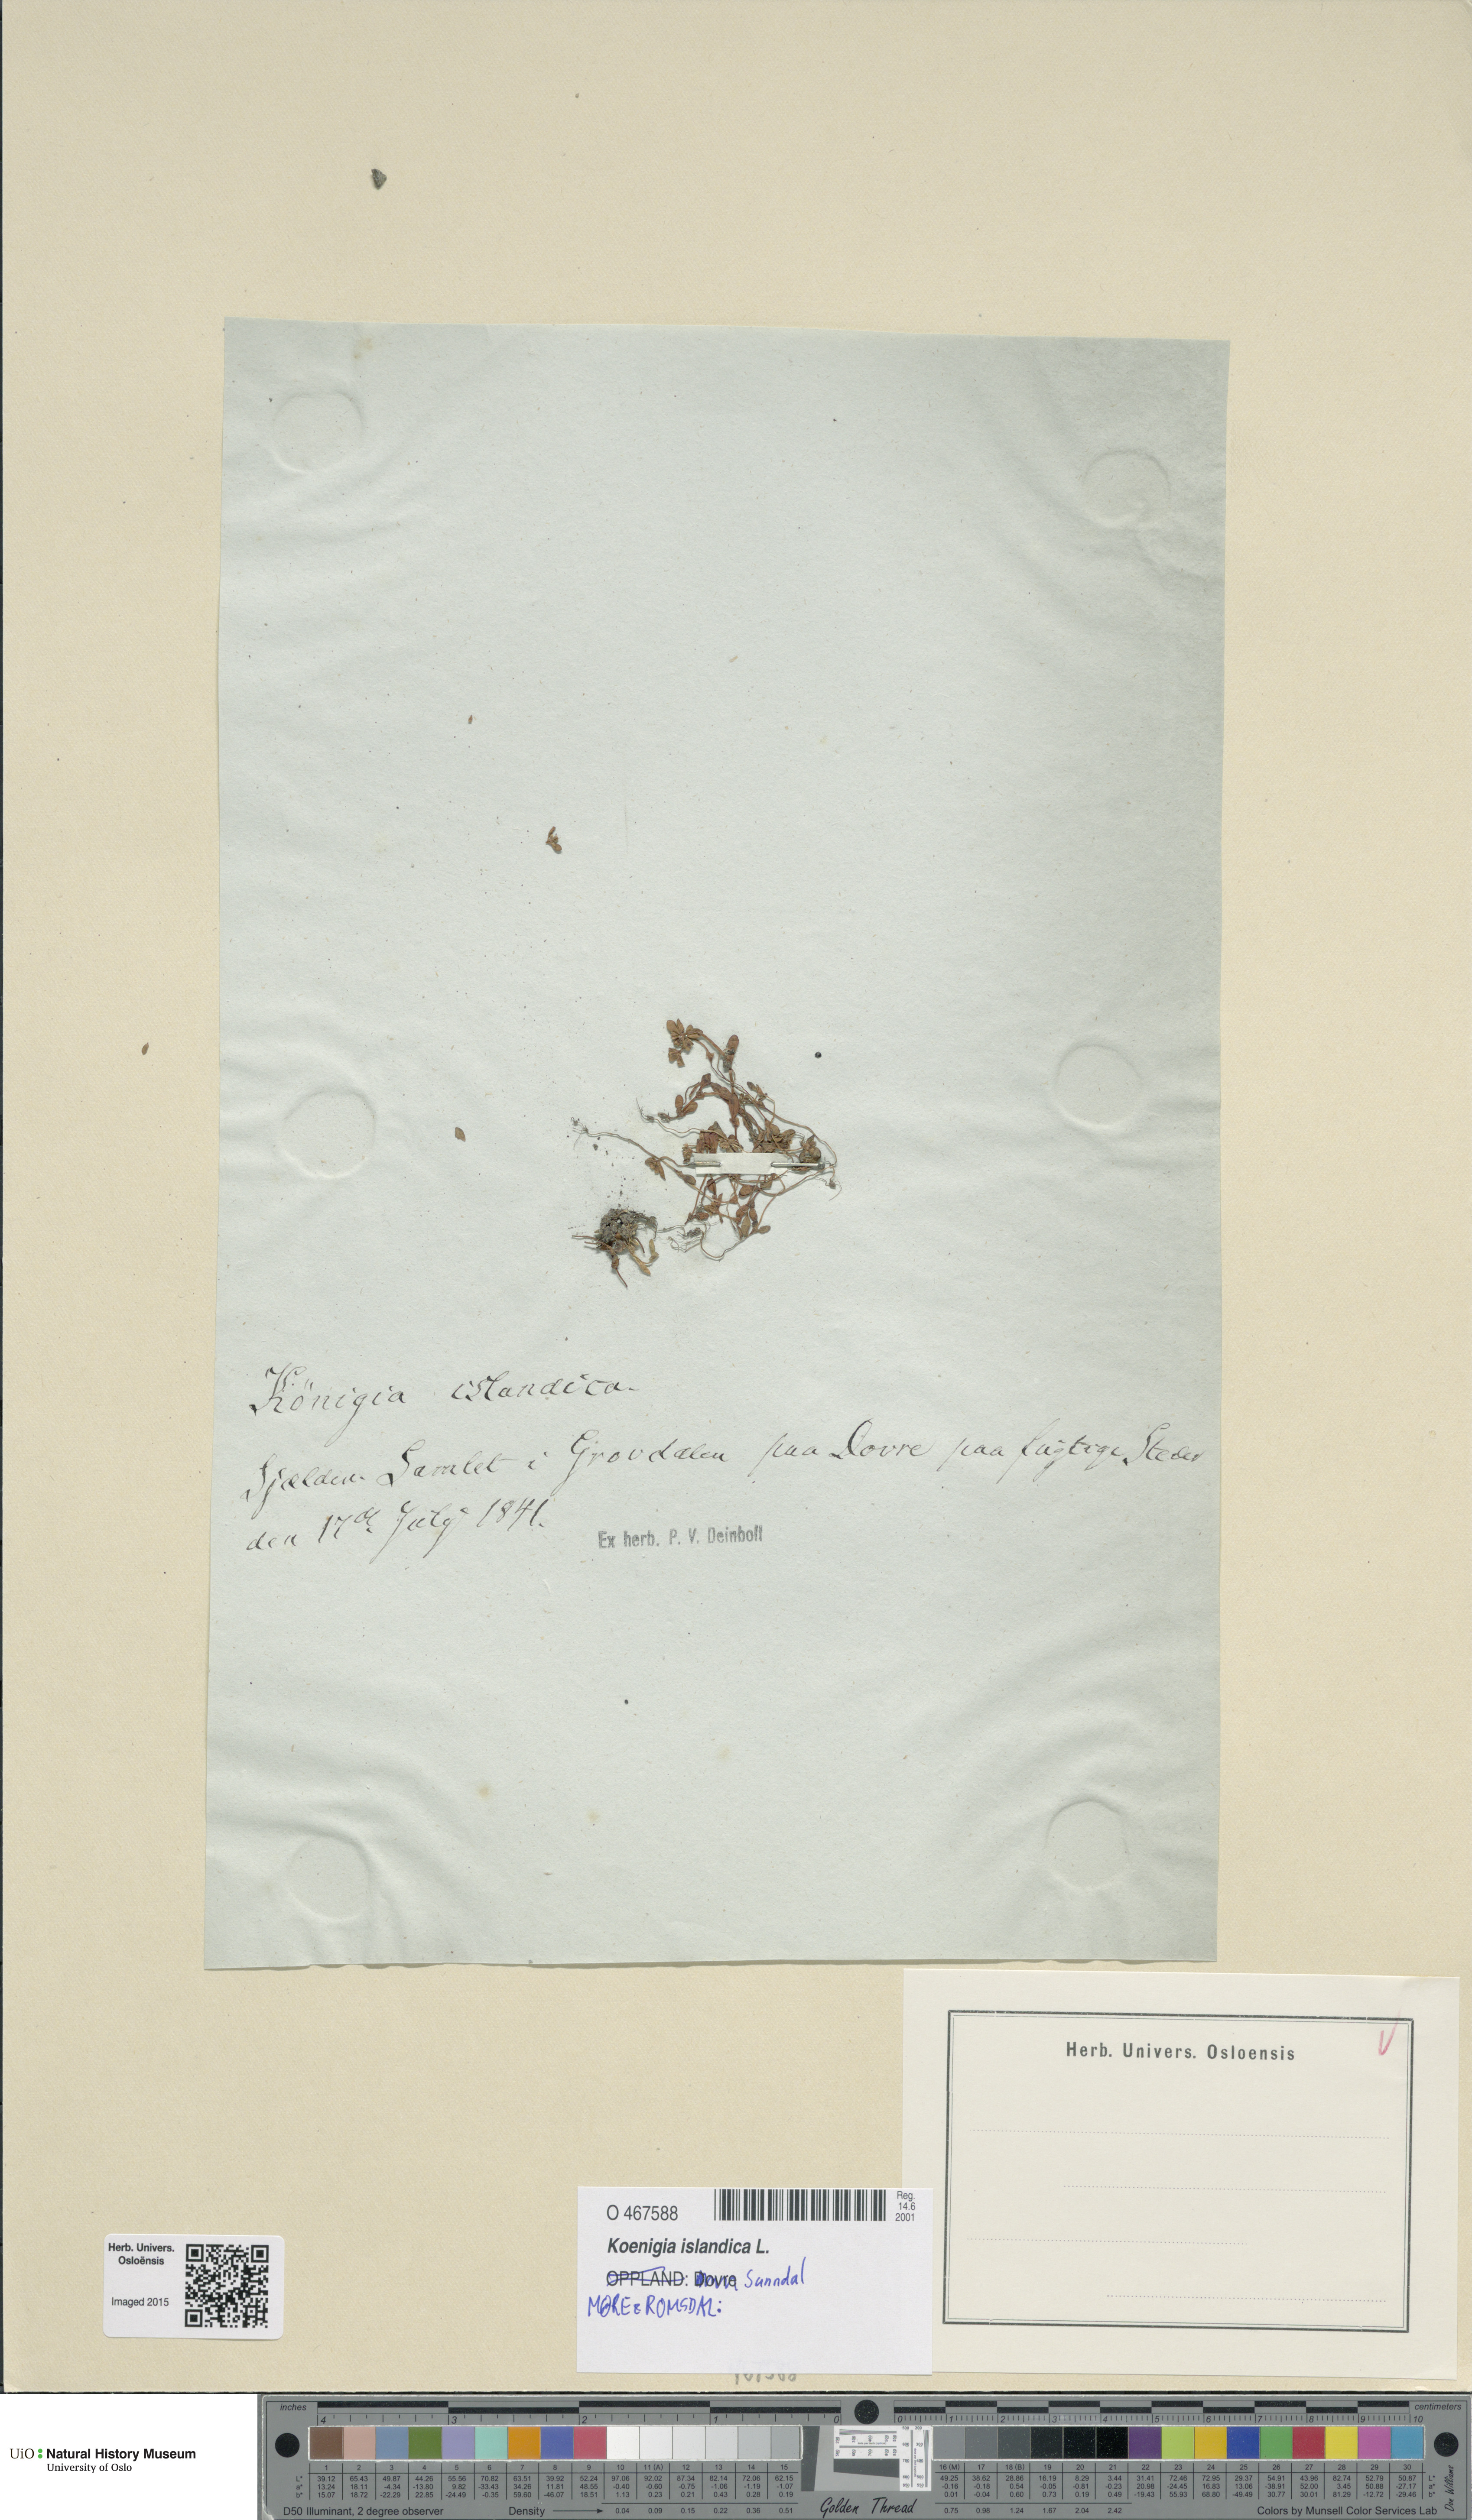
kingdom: Plantae
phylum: Tracheophyta
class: Magnoliopsida
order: Caryophyllales
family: Polygonaceae
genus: Koenigia
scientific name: Koenigia islandica
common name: Iceland-purslane
